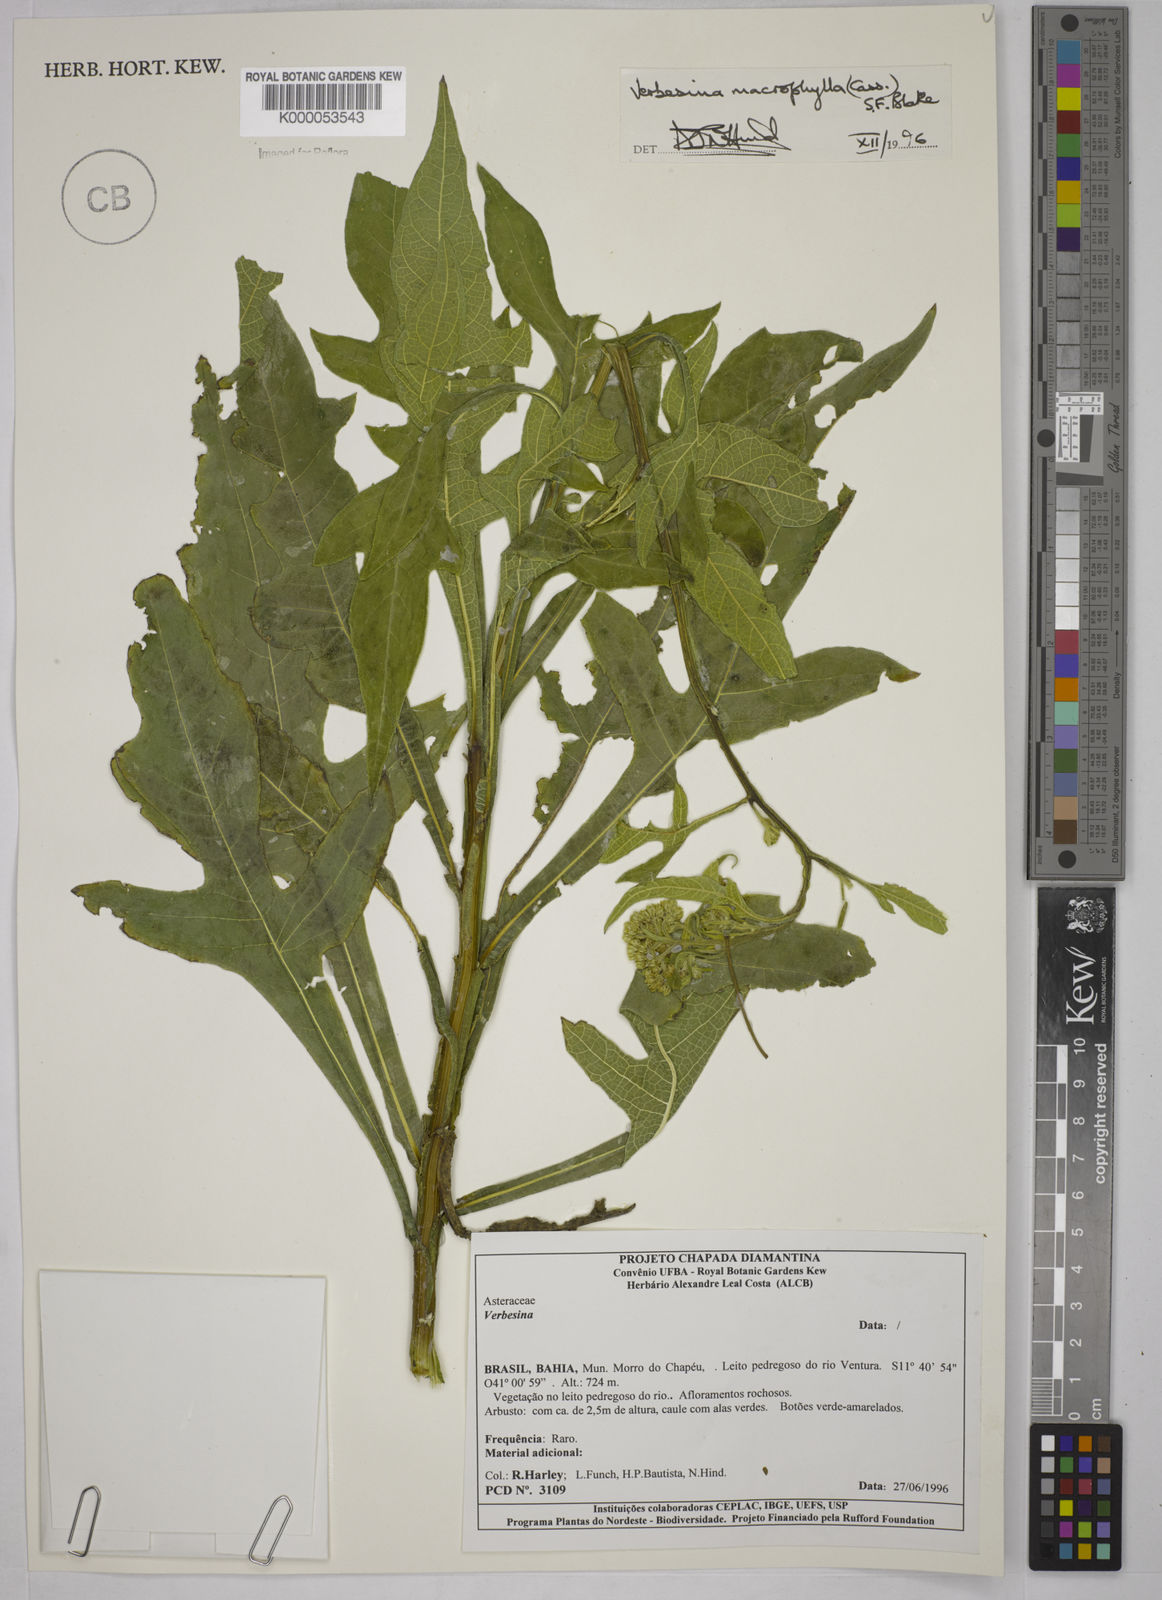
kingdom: Plantae
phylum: Tracheophyta
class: Magnoliopsida
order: Asterales
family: Asteraceae
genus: Verbesina
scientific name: Verbesina macrophylla
